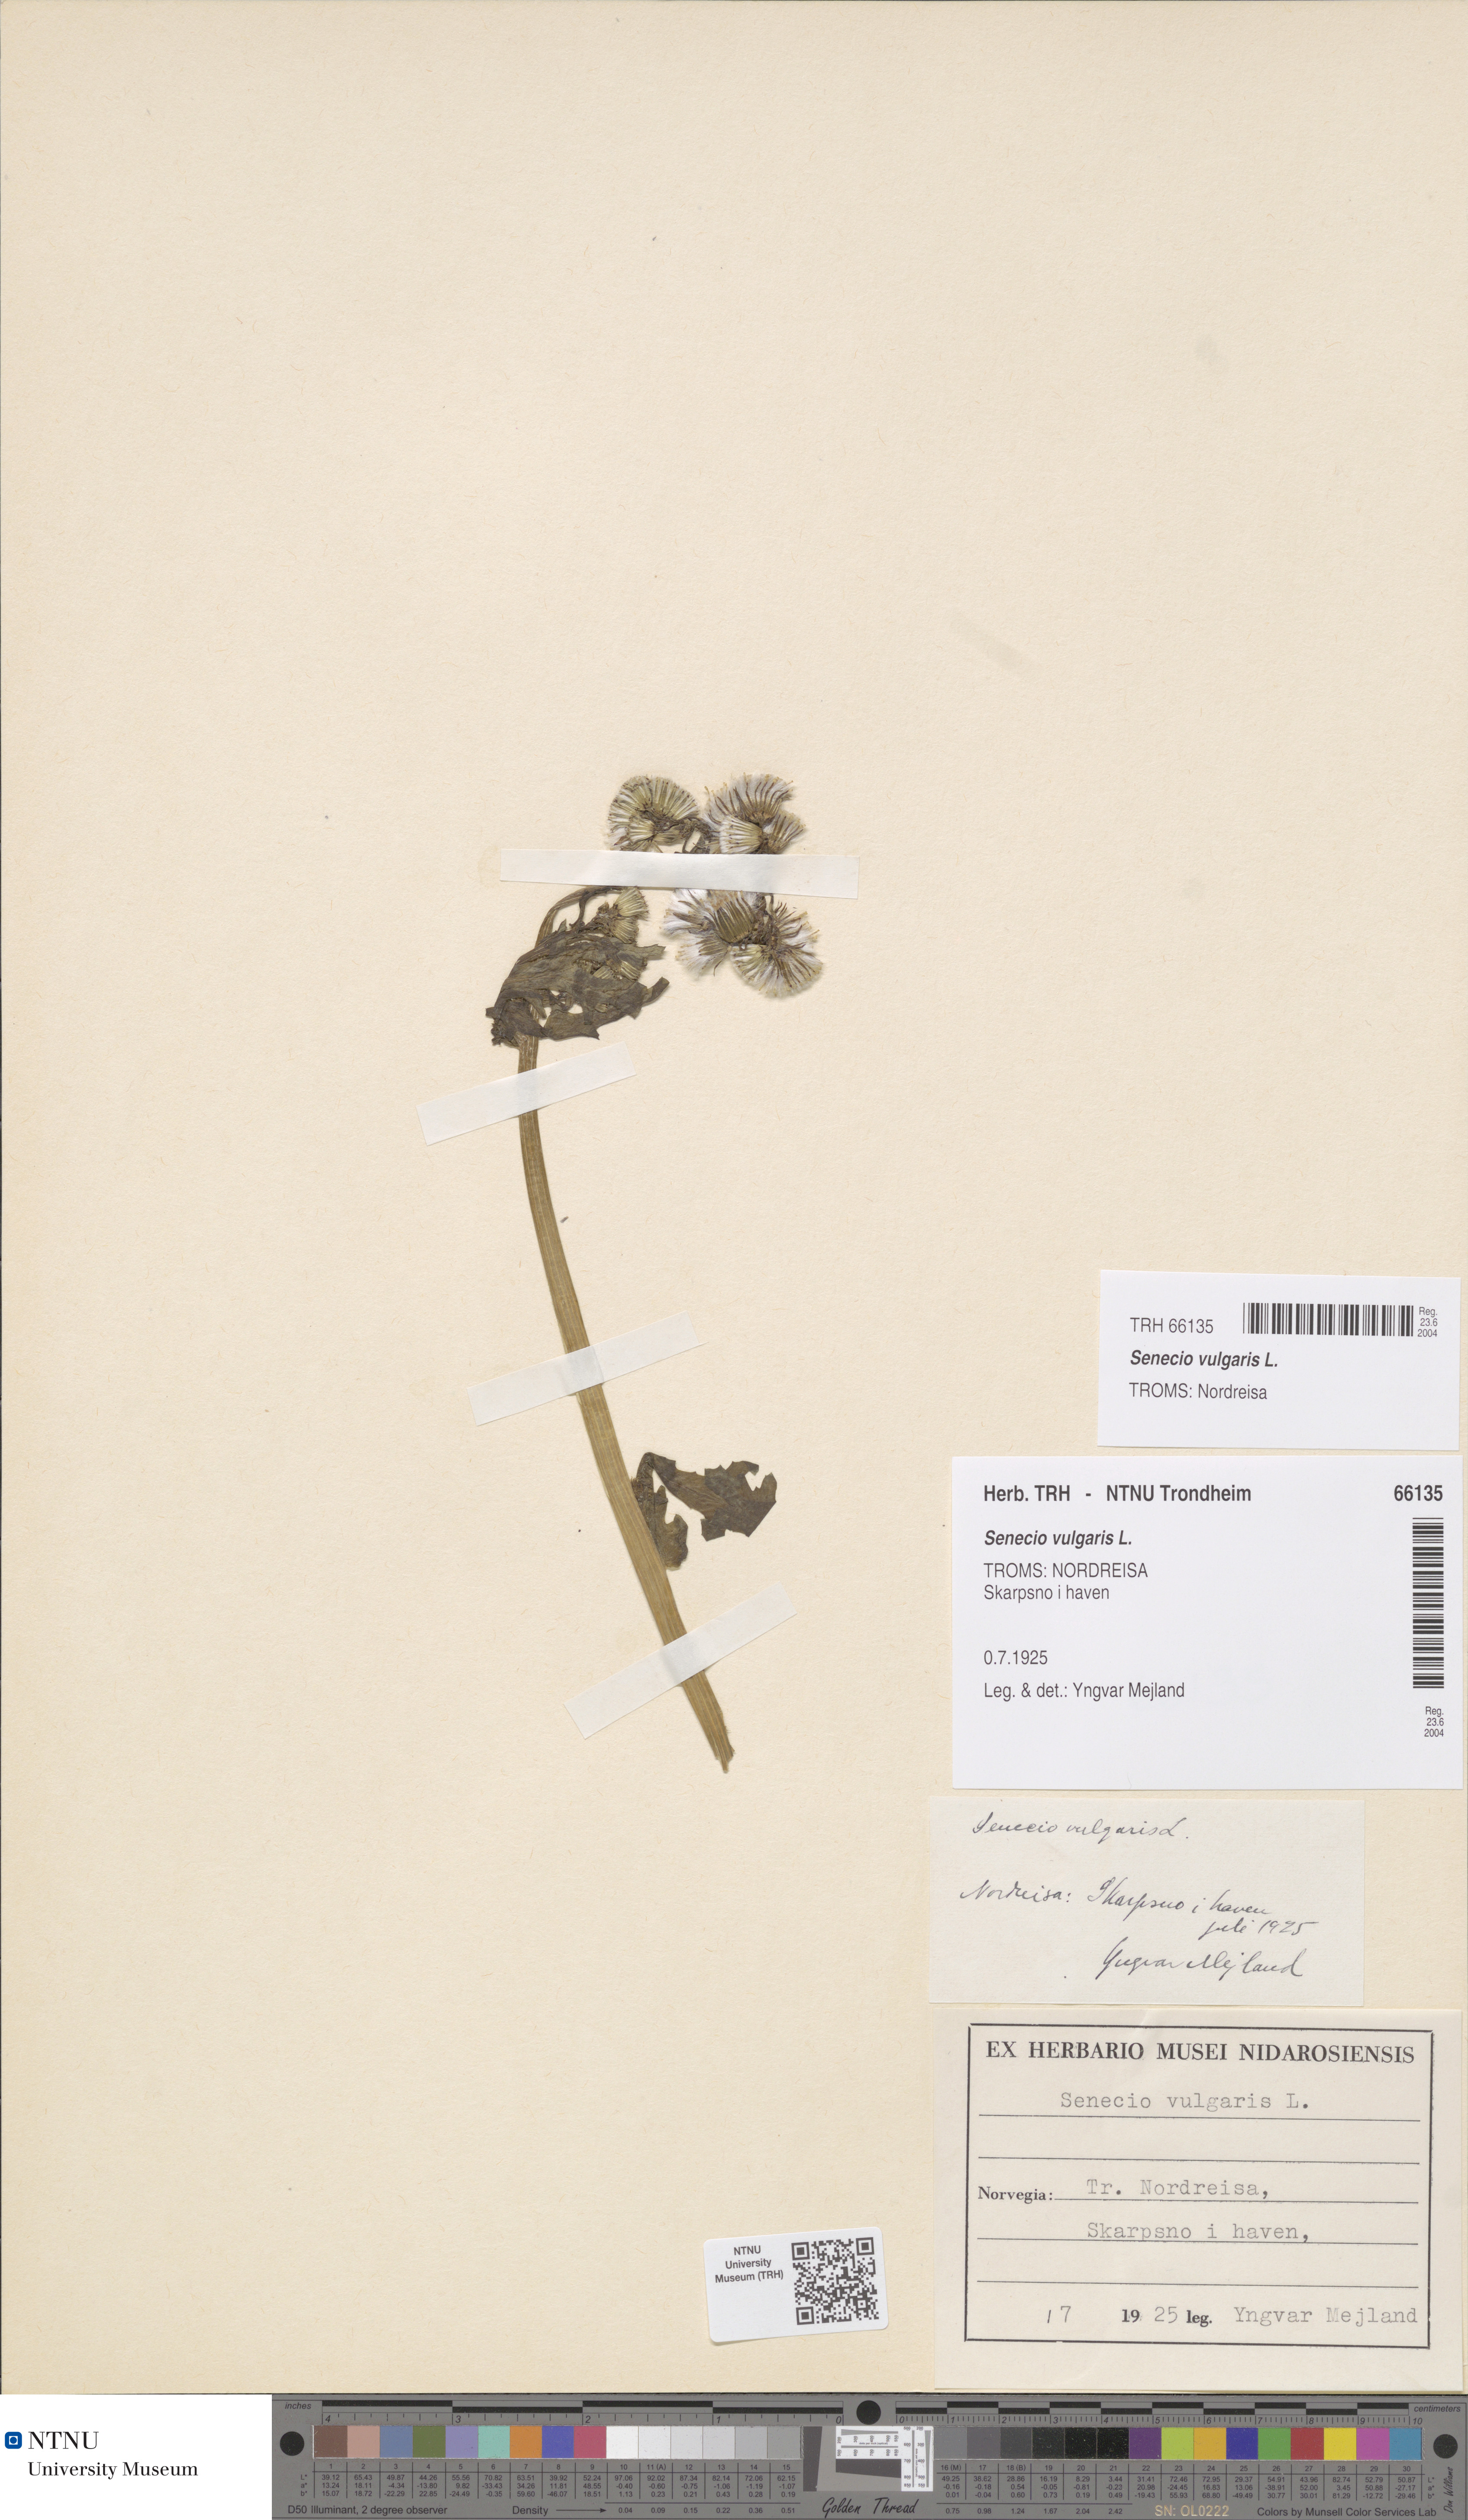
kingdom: Plantae
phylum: Tracheophyta
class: Magnoliopsida
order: Asterales
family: Asteraceae
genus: Senecio
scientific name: Senecio vulgaris
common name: Old-man-in-the-spring
